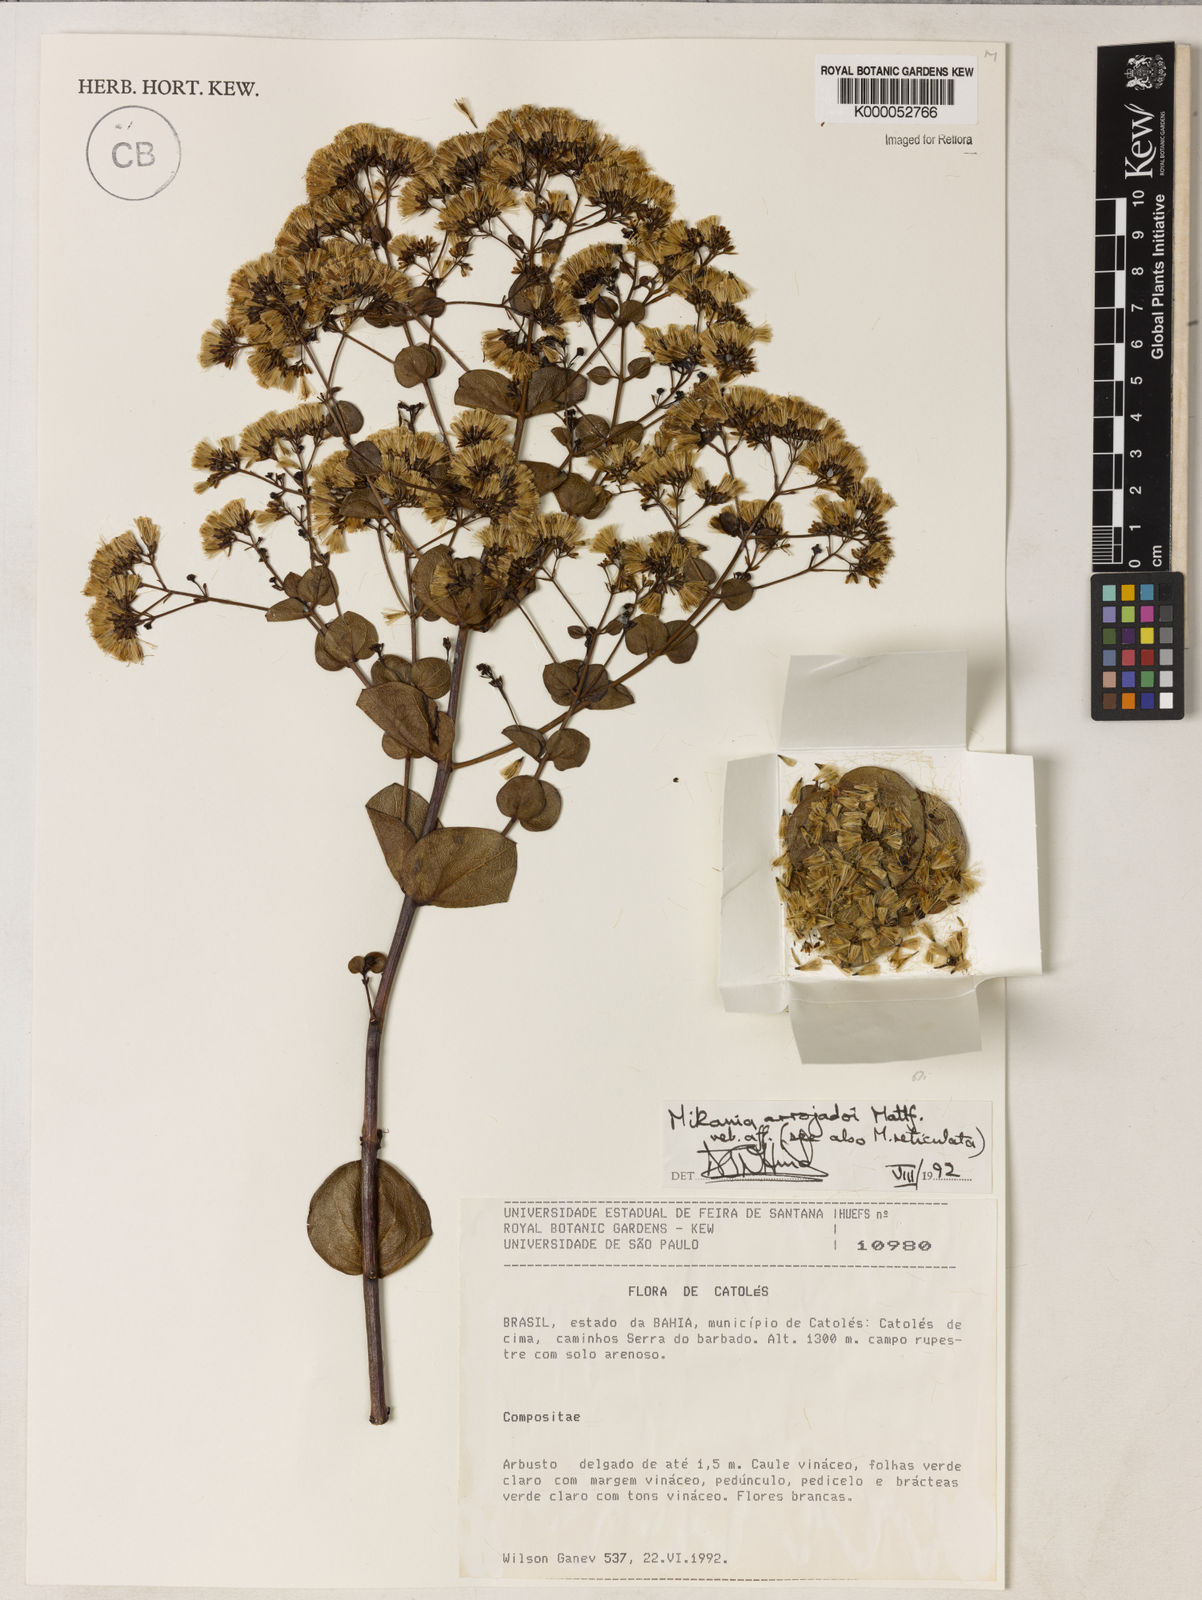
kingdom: Plantae
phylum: Tracheophyta
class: Magnoliopsida
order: Asterales
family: Asteraceae
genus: Mikania
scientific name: Mikania arrojadoi
